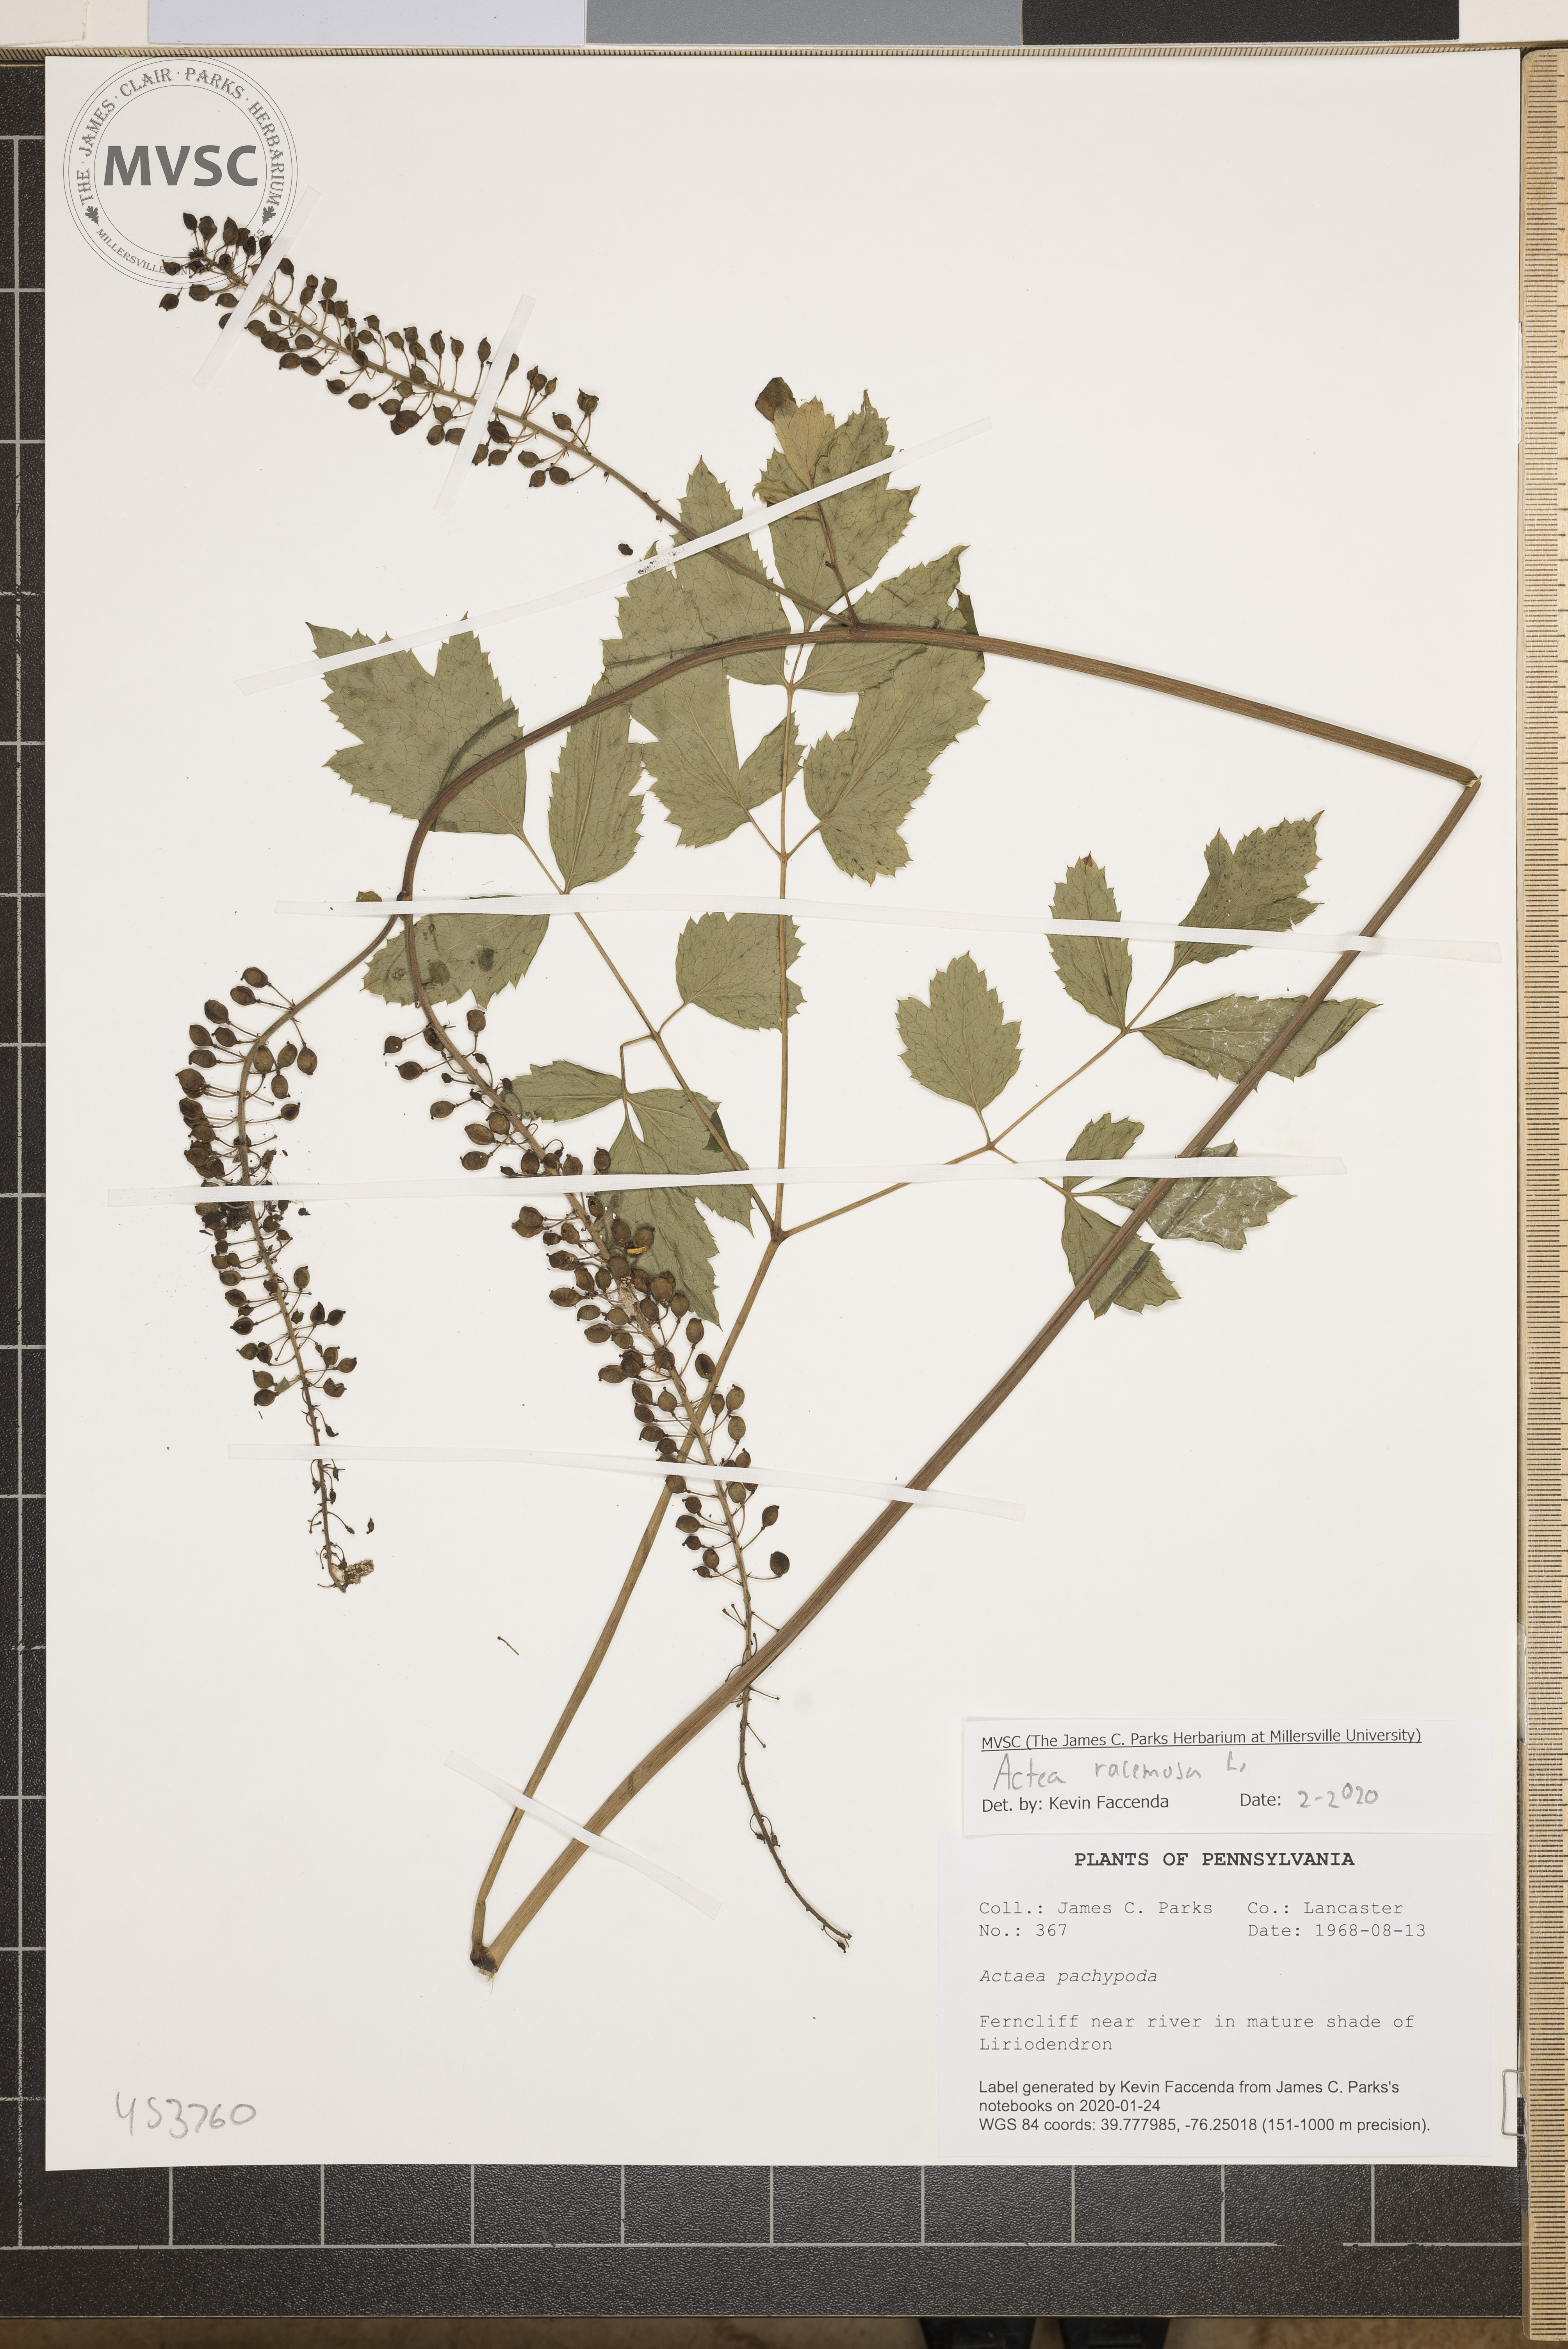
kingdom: Plantae
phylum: Tracheophyta
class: Magnoliopsida
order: Ranunculales
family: Ranunculaceae
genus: Actaea
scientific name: Actaea racemosa
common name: Black cohosh
